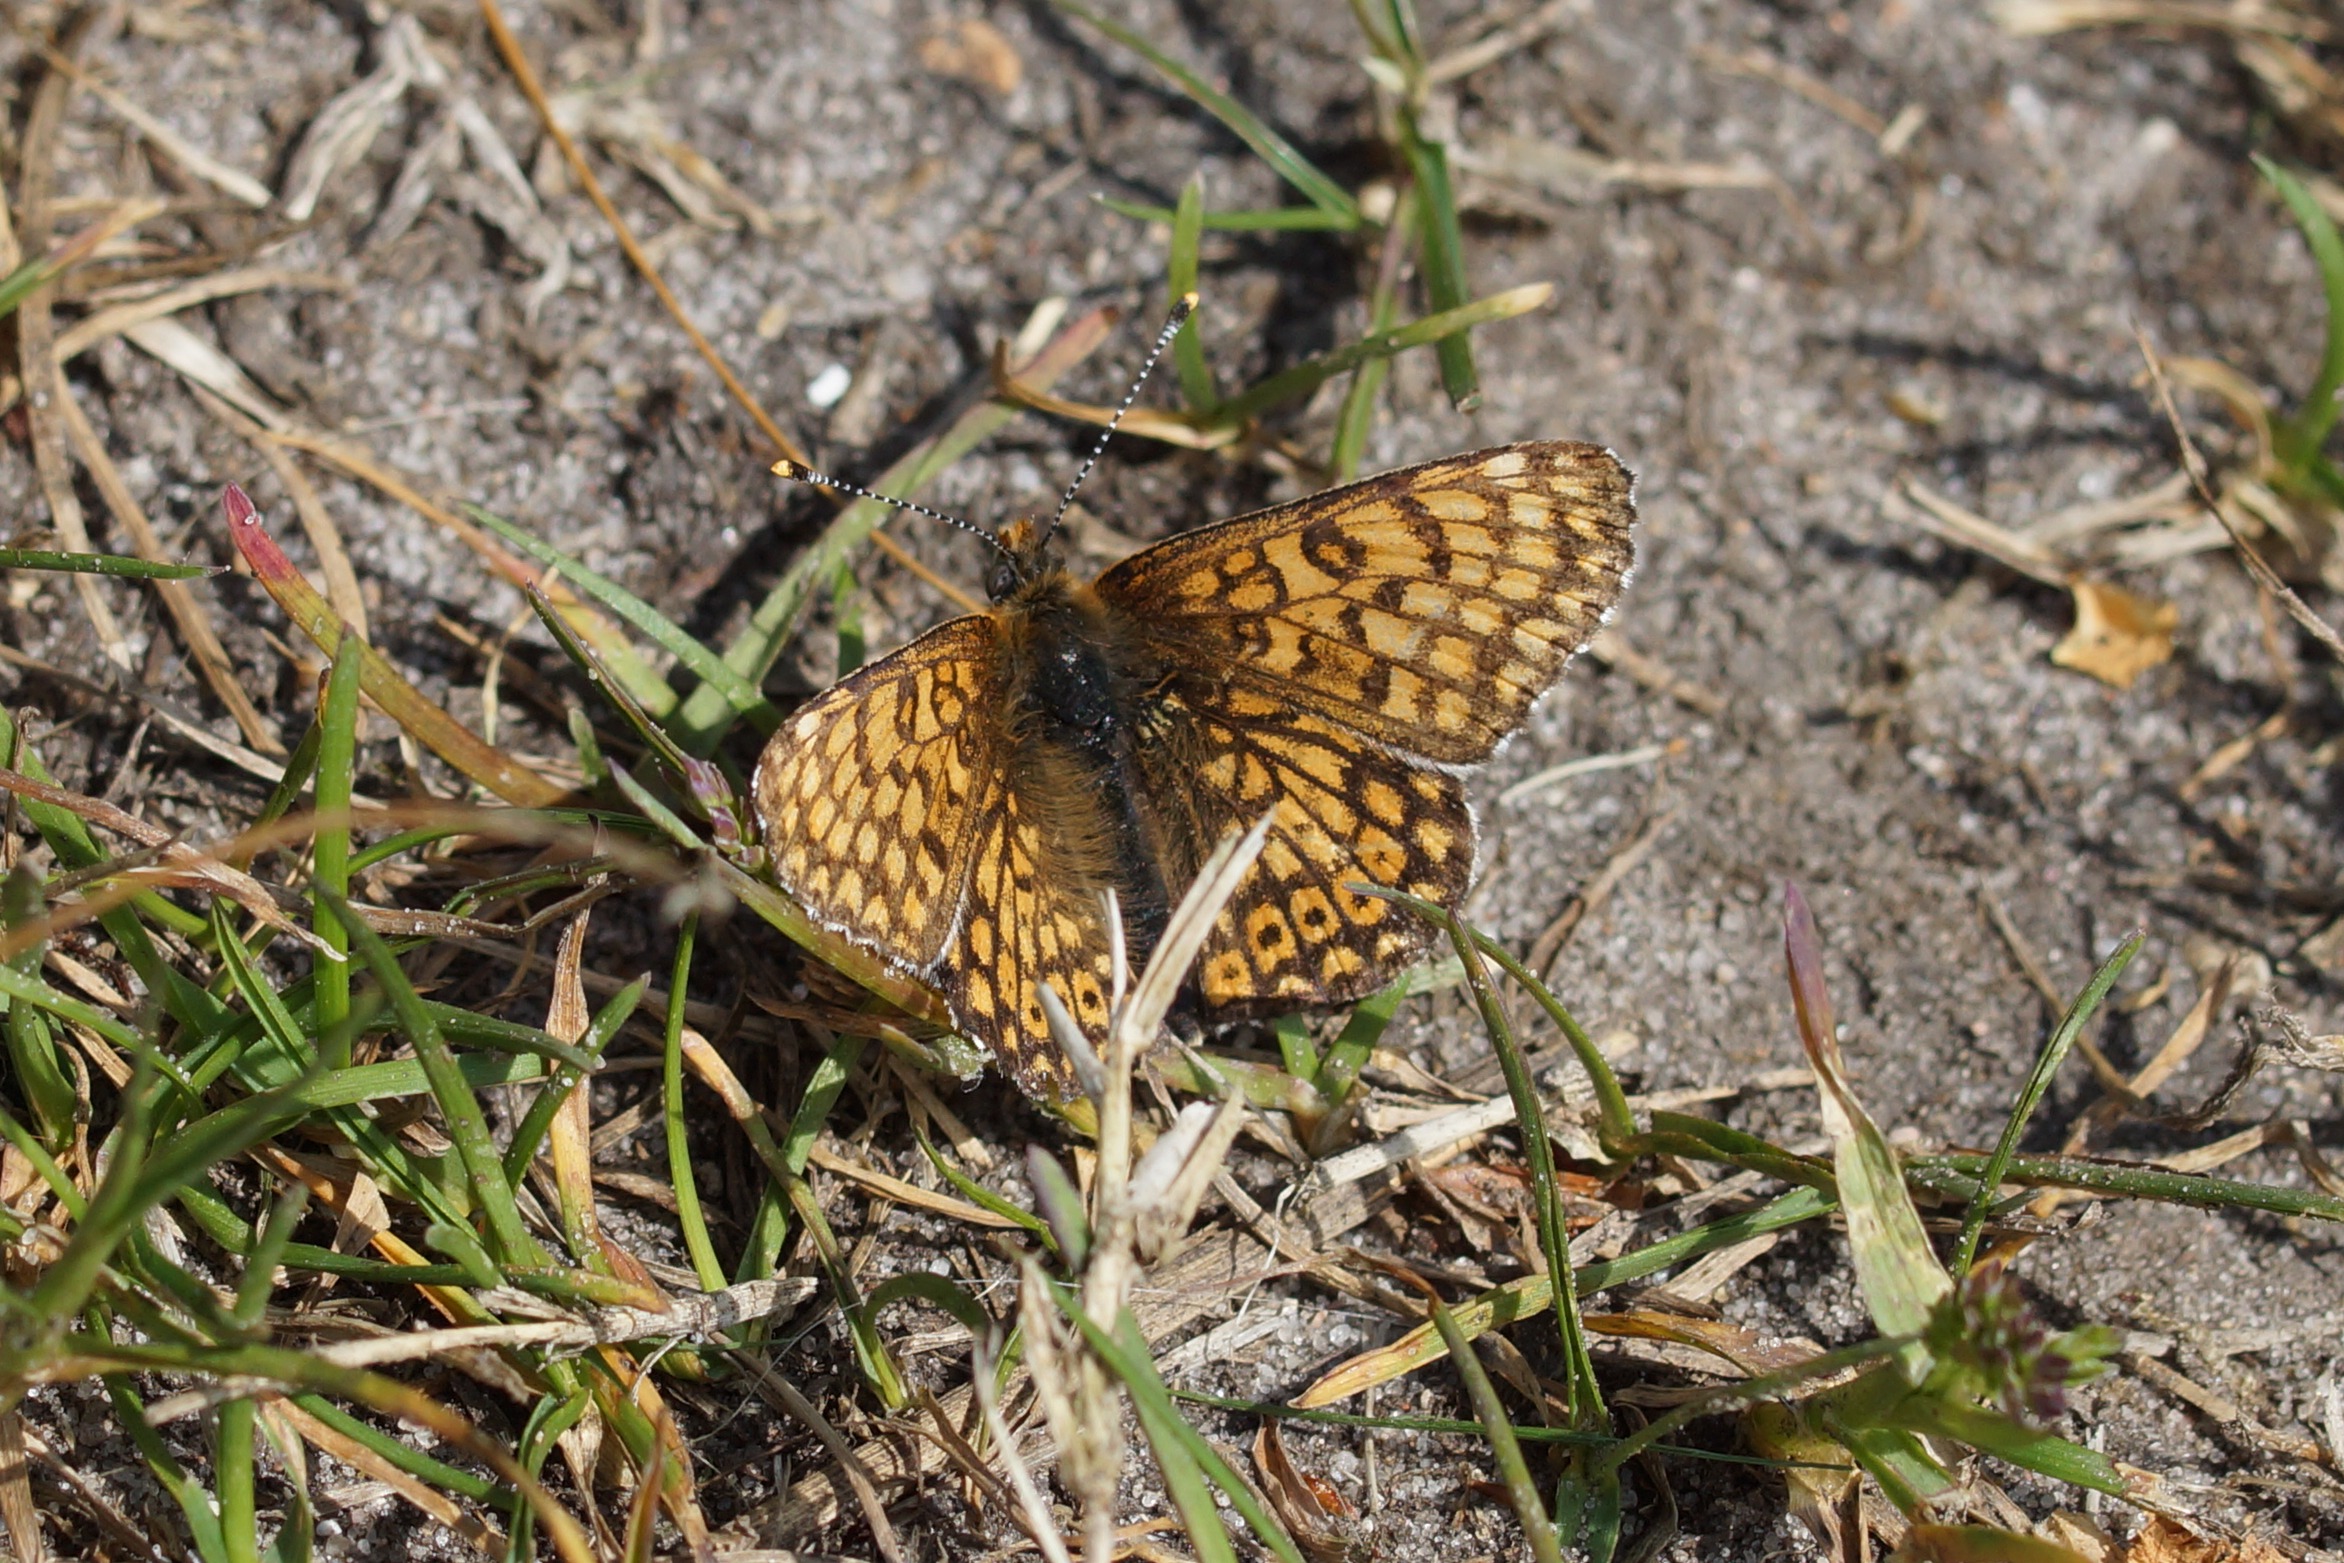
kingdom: Animalia
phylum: Arthropoda
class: Insecta
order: Lepidoptera
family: Nymphalidae
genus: Melitaea
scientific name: Melitaea cinxia
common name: Okkergul pletvinge
